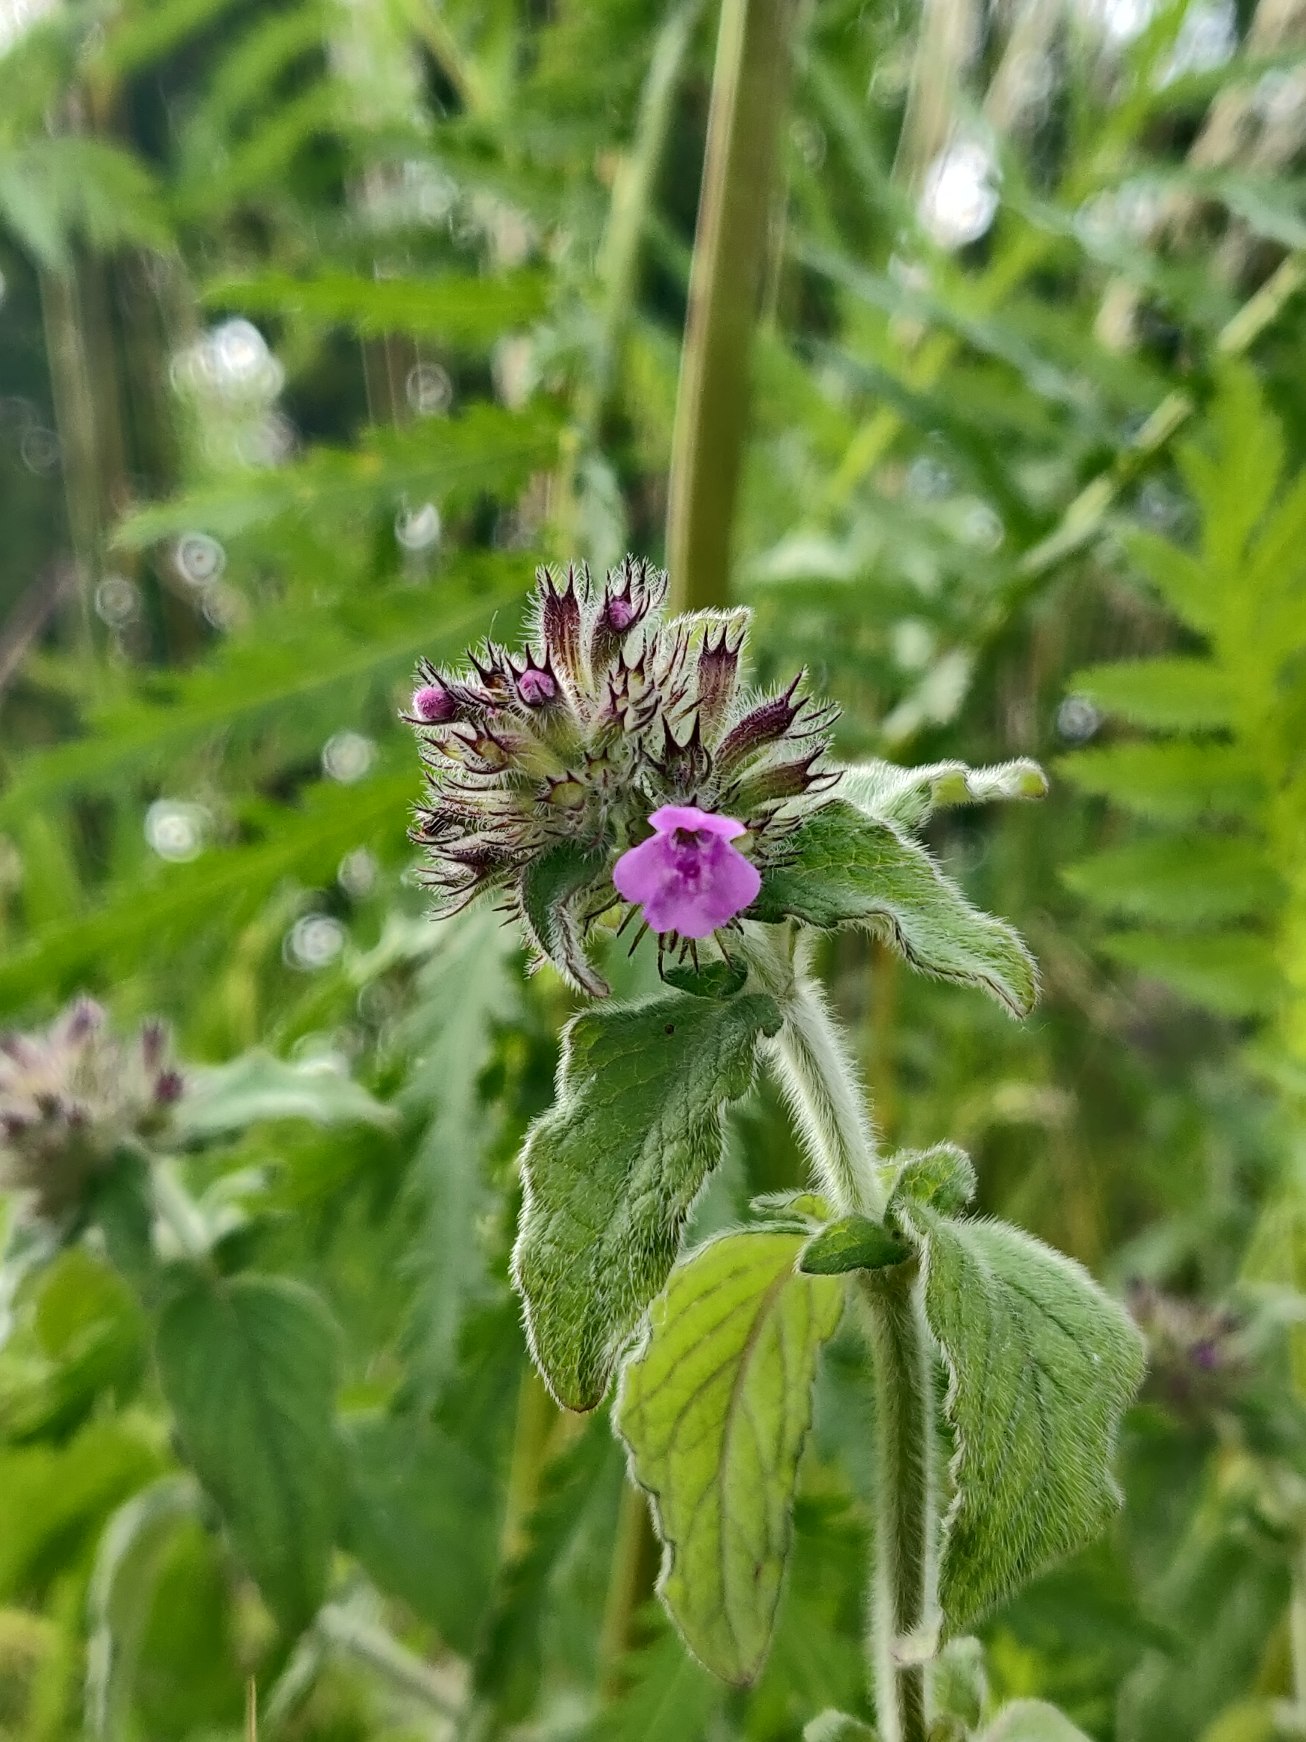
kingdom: Plantae
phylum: Tracheophyta
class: Magnoliopsida
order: Lamiales
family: Lamiaceae
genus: Clinopodium
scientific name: Clinopodium vulgare
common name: Kransbørste
